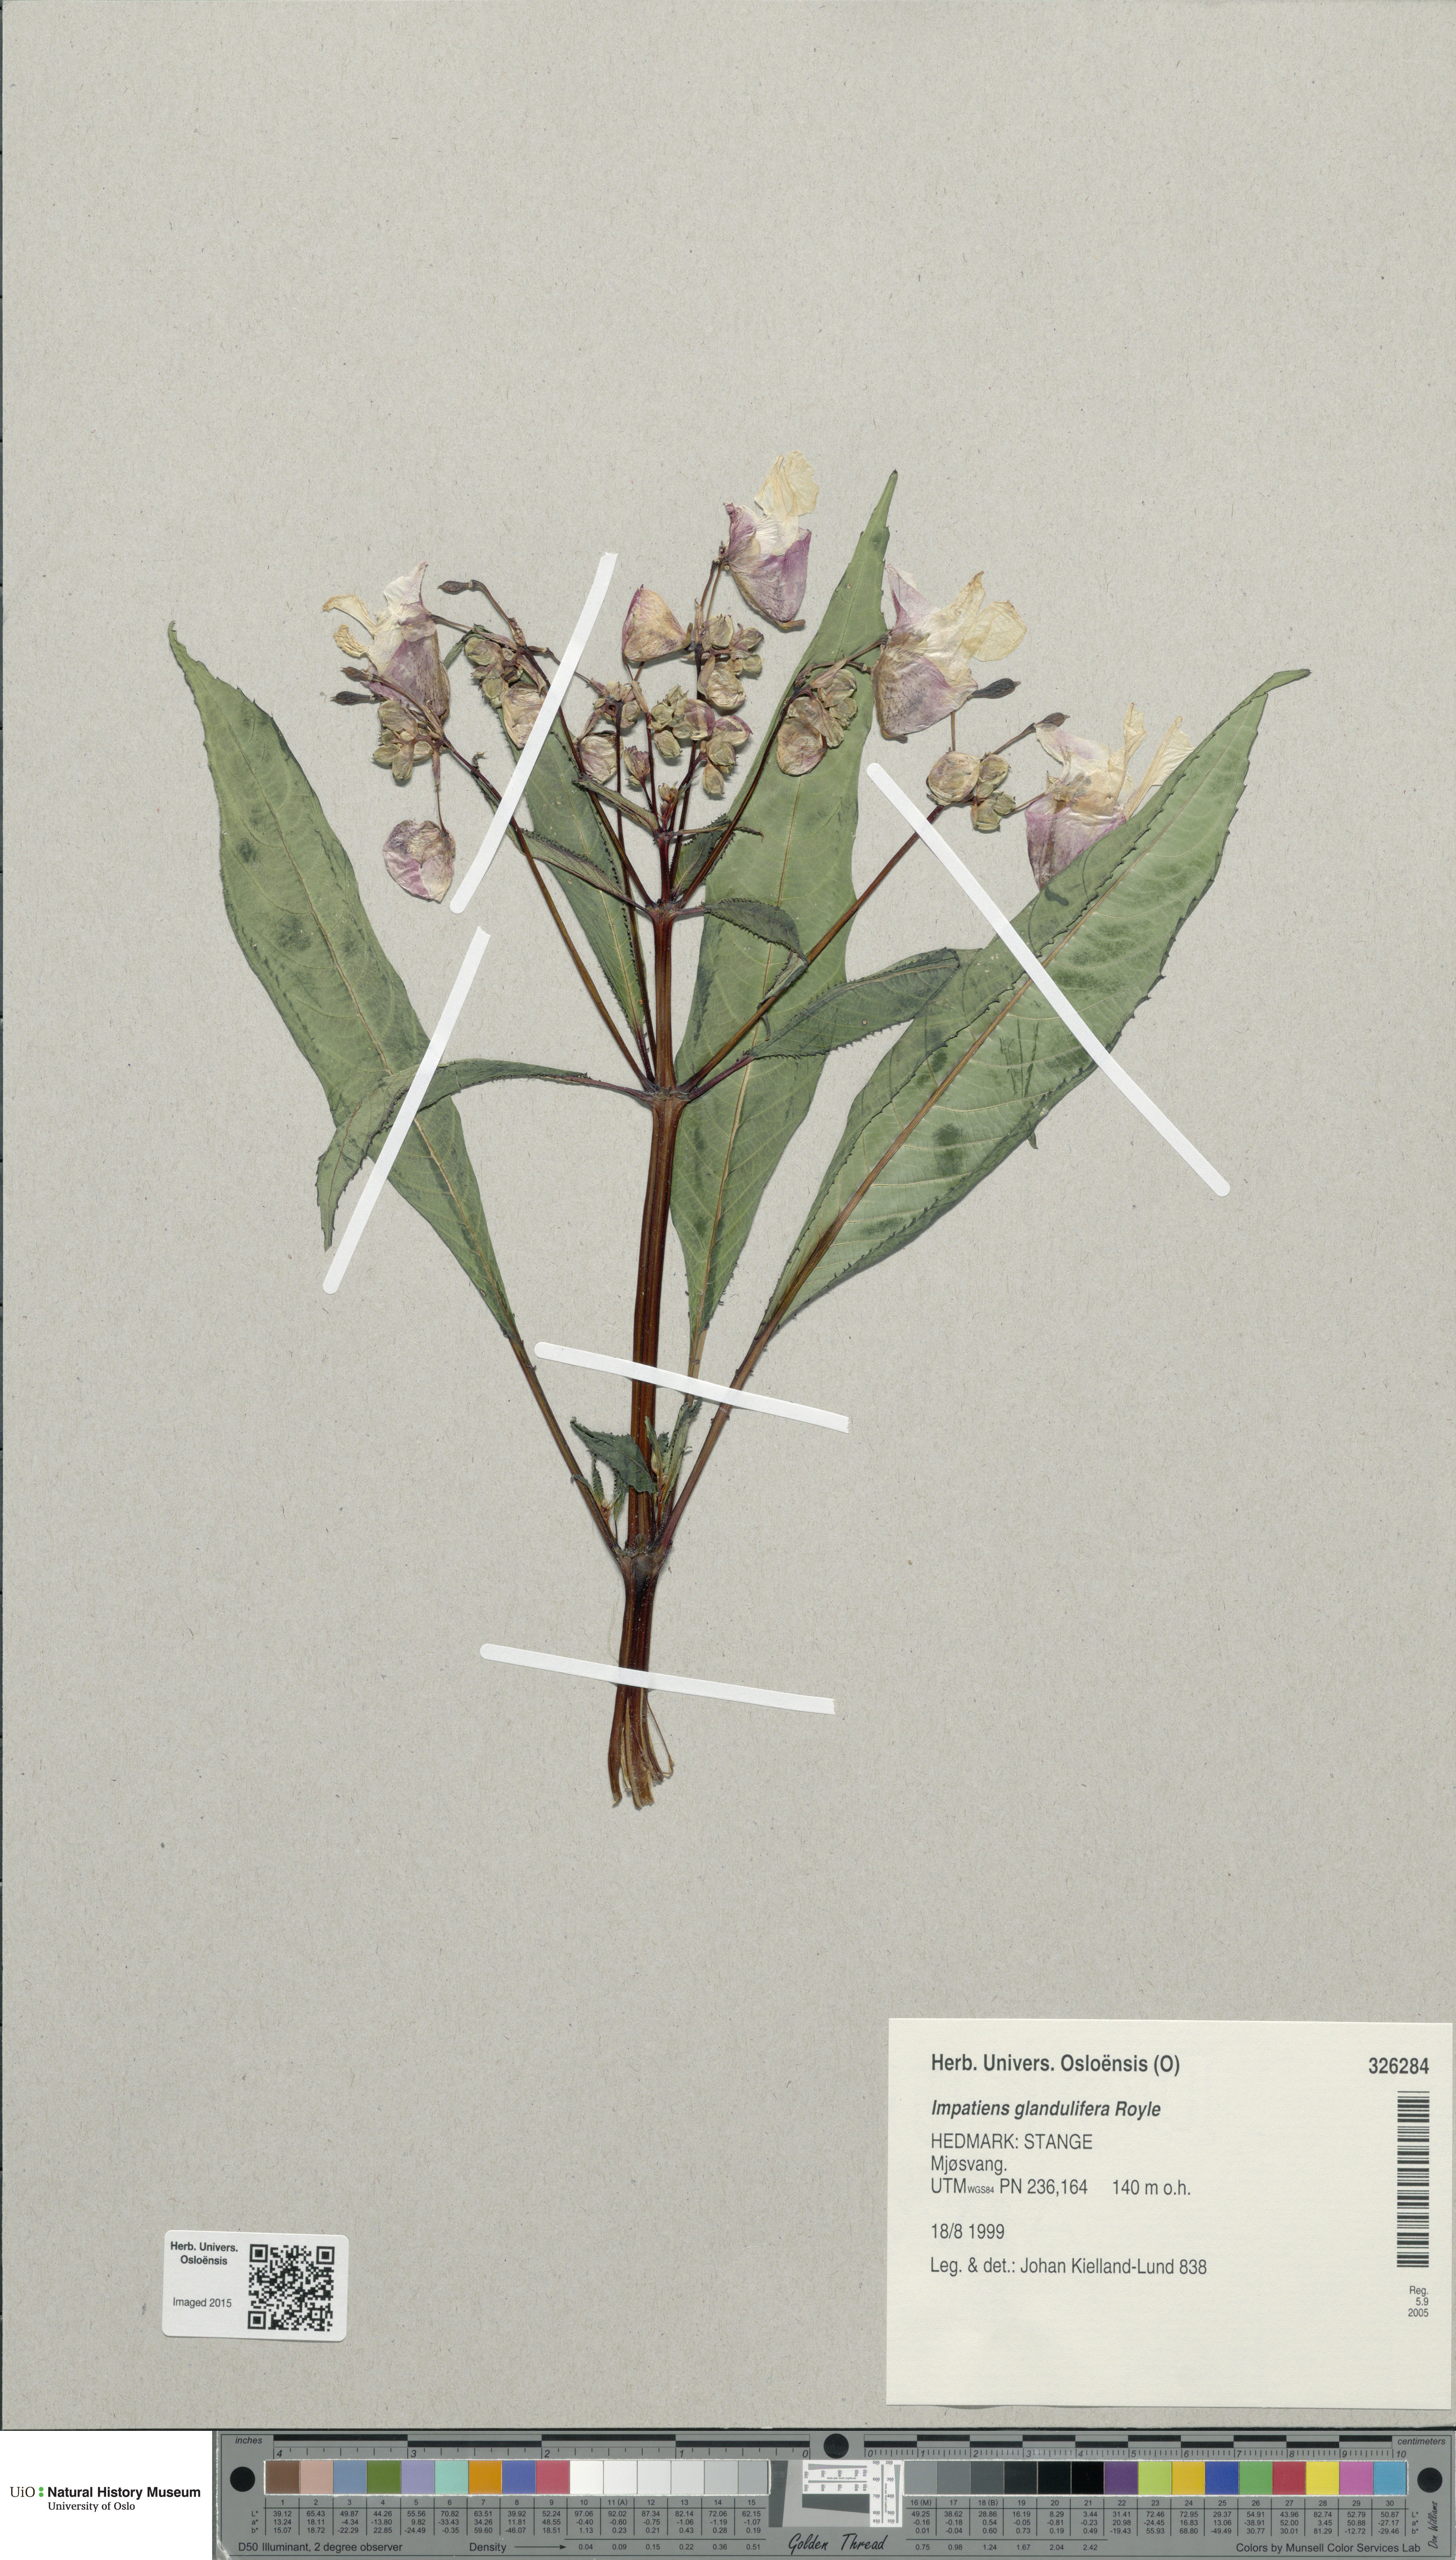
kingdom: Plantae
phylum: Tracheophyta
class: Magnoliopsida
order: Ericales
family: Balsaminaceae
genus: Impatiens
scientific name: Impatiens glandulifera
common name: Himalayan balsam
